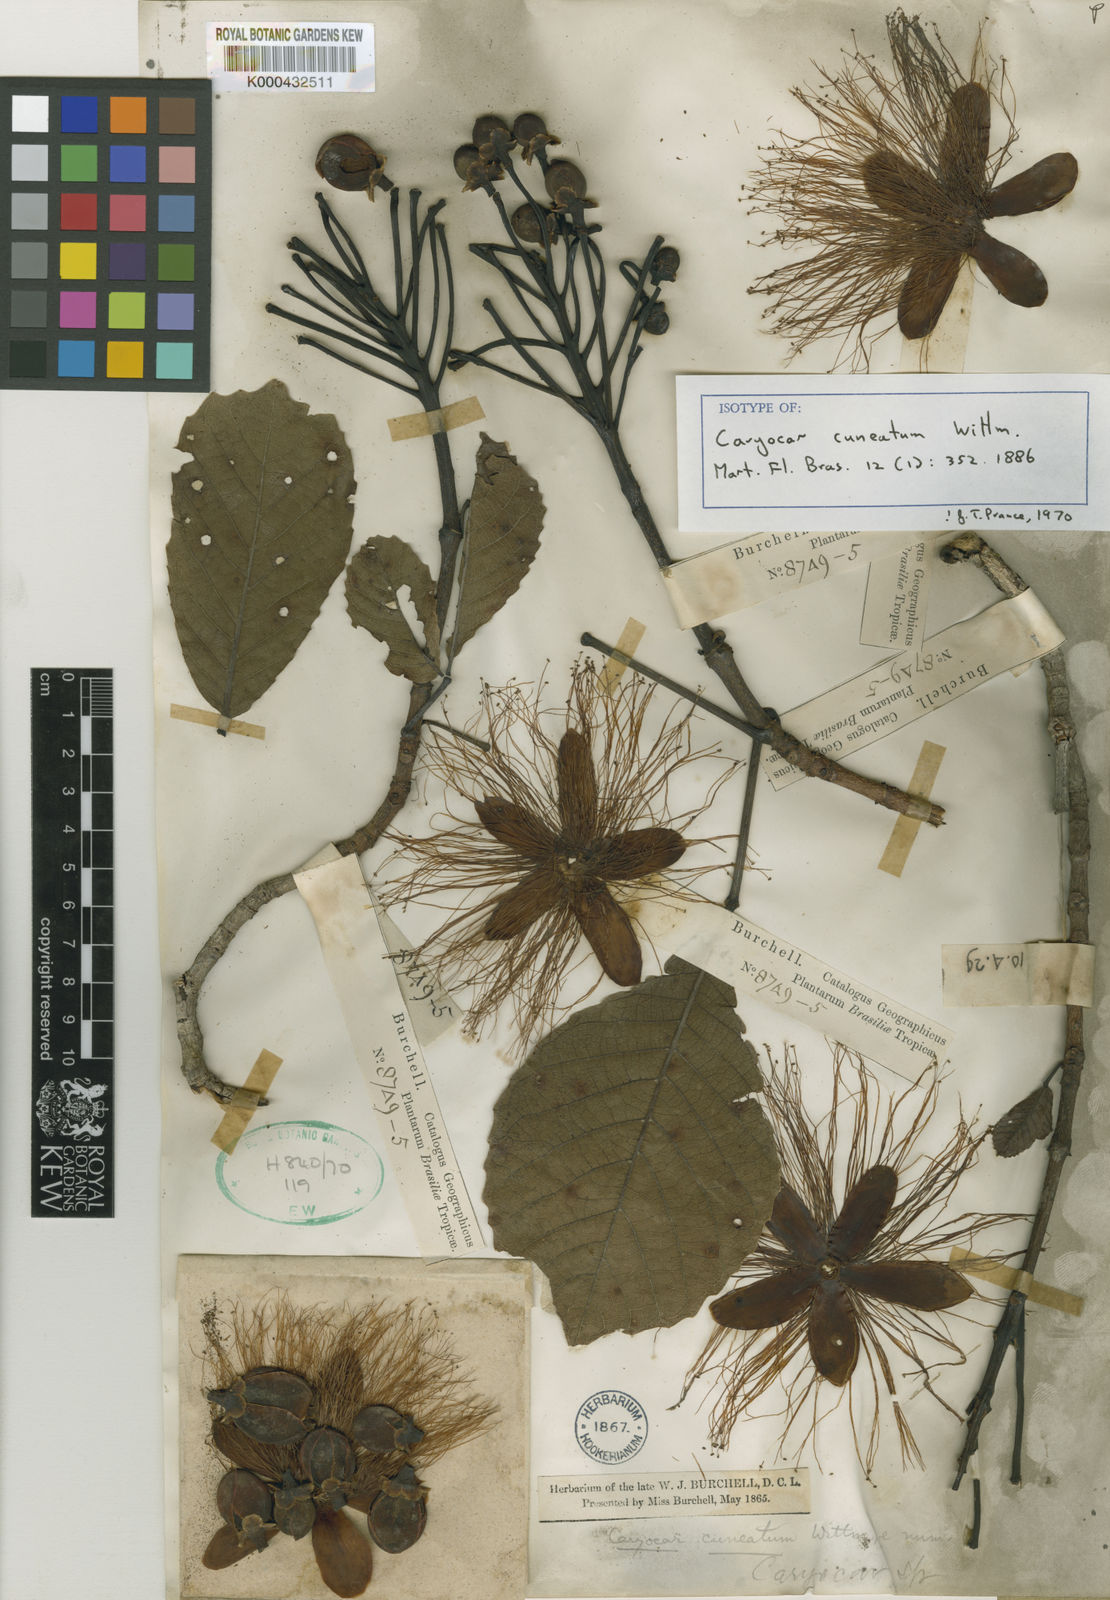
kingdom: Plantae
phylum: Tracheophyta
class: Magnoliopsida
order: Malpighiales
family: Caryocaraceae
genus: Caryocar
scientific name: Caryocar cuneatum
